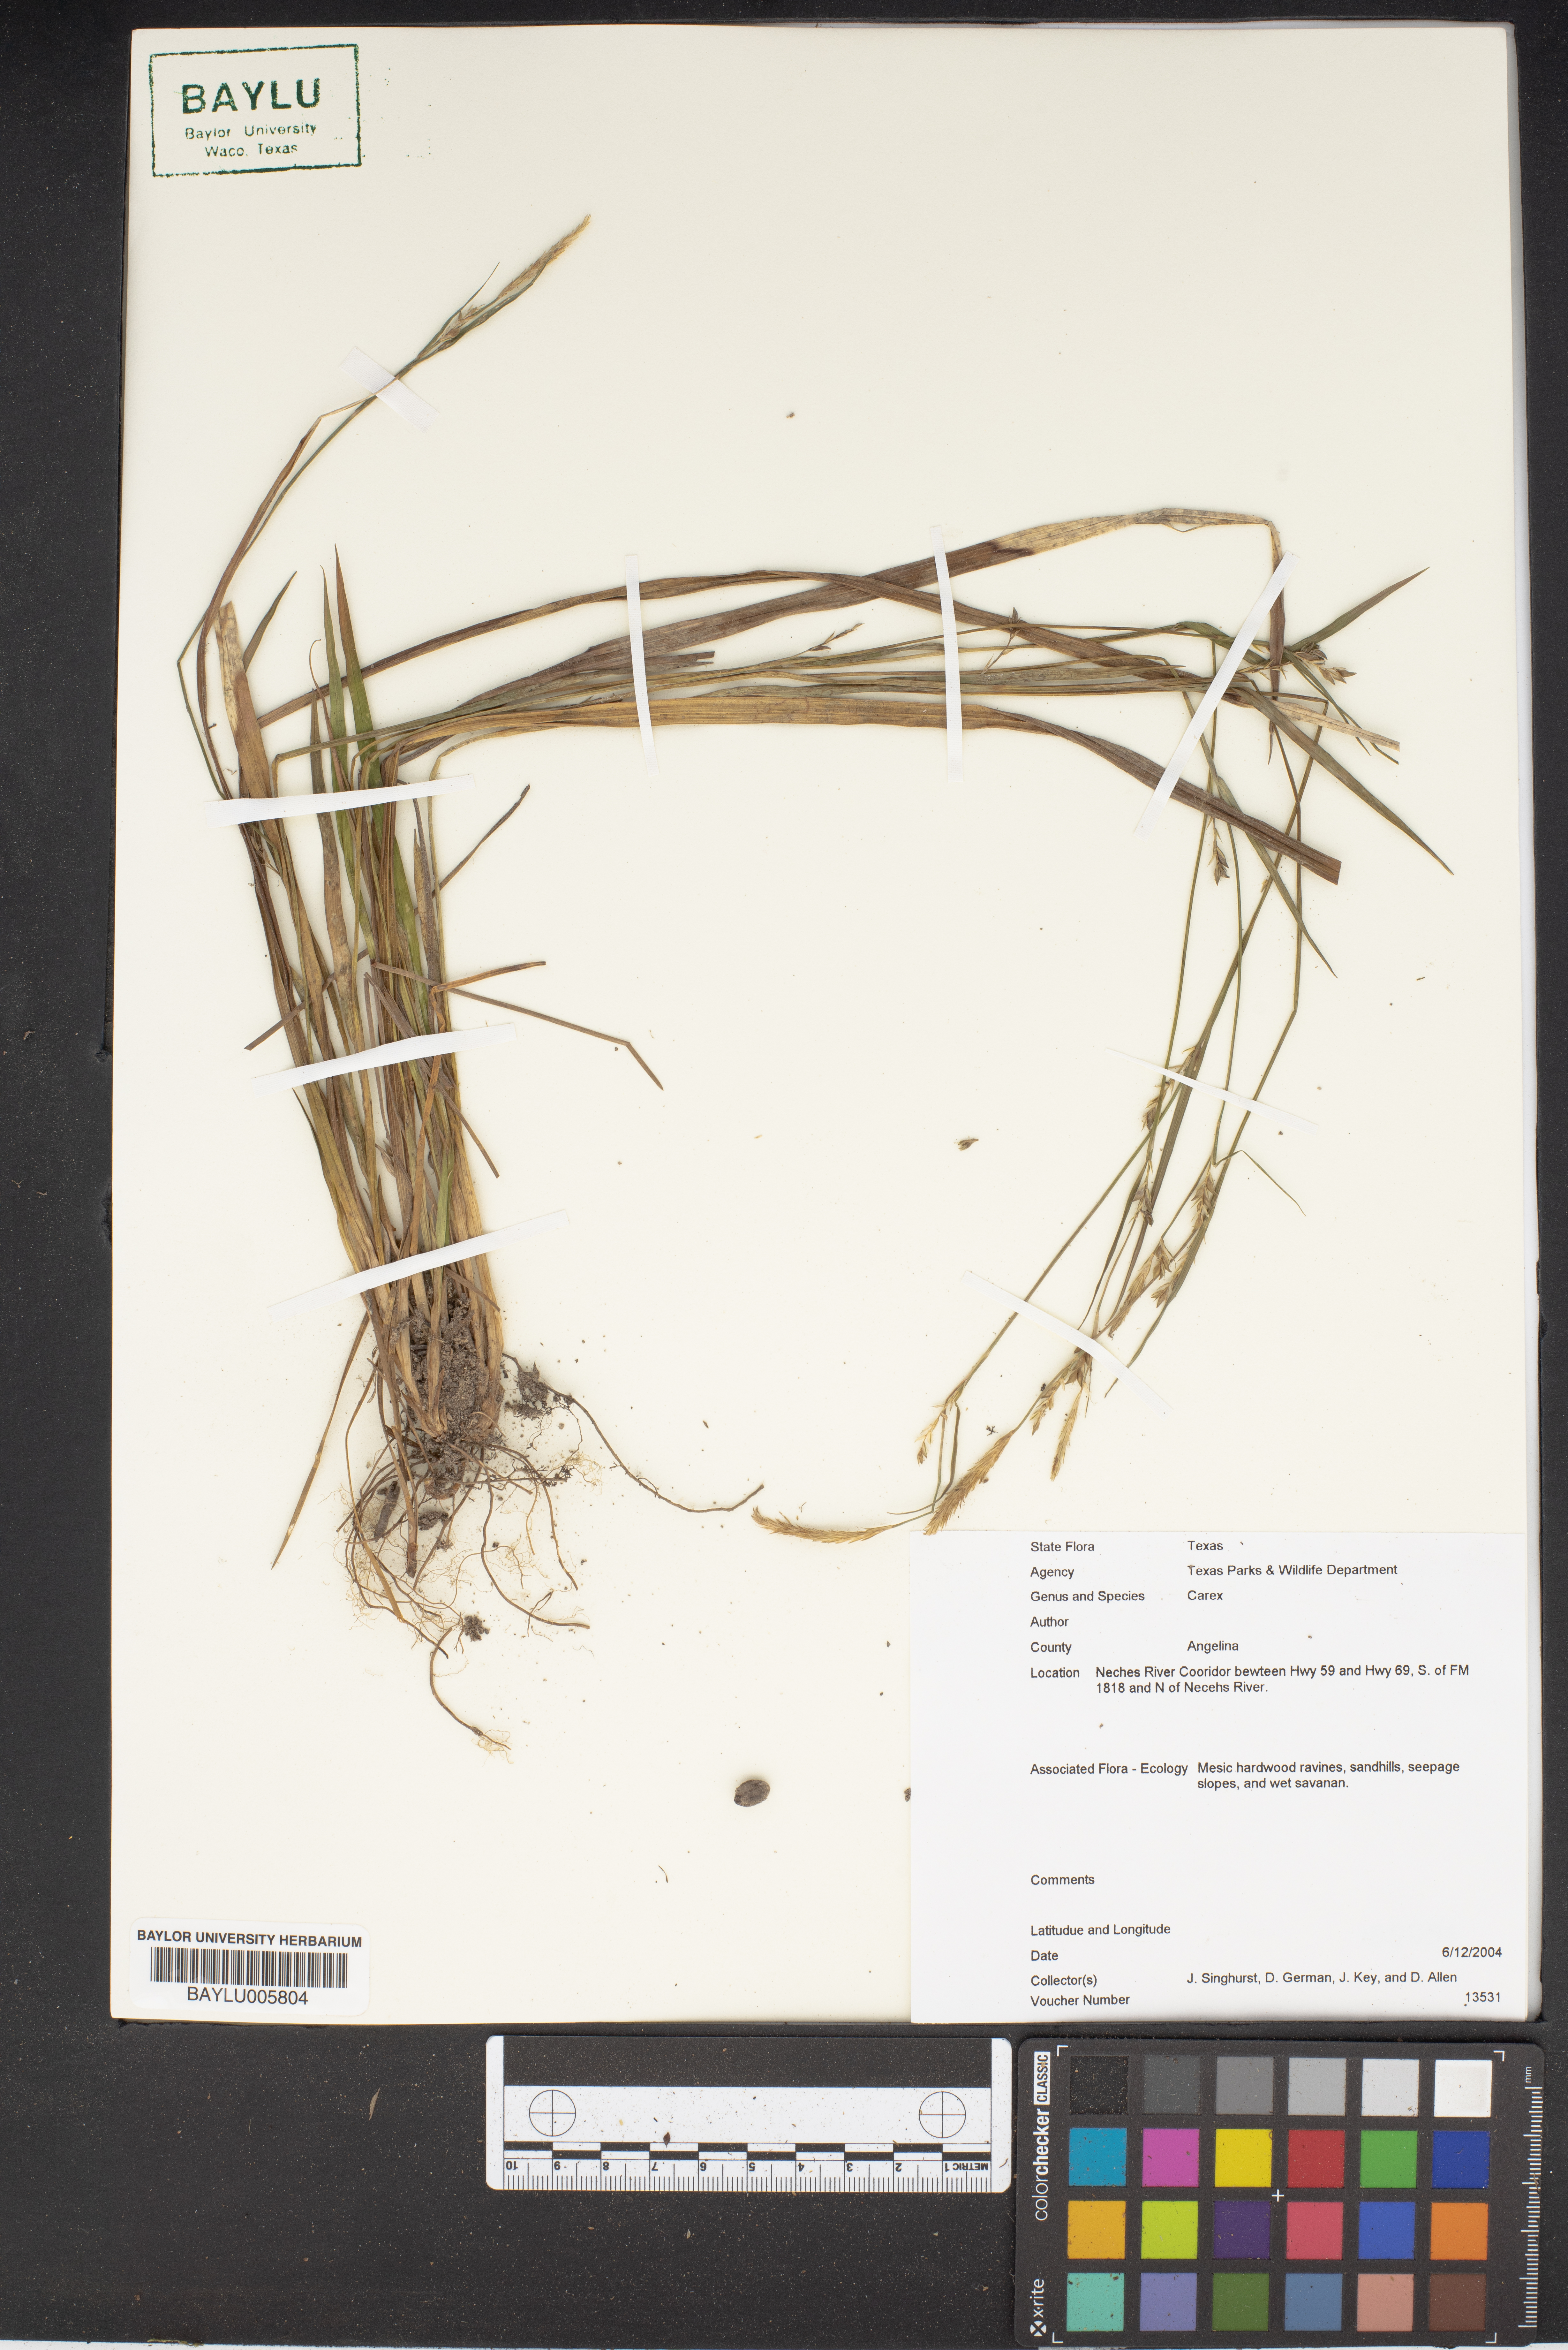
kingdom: Plantae
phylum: Tracheophyta
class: Liliopsida
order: Poales
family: Cyperaceae
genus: Carex
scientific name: Carex
